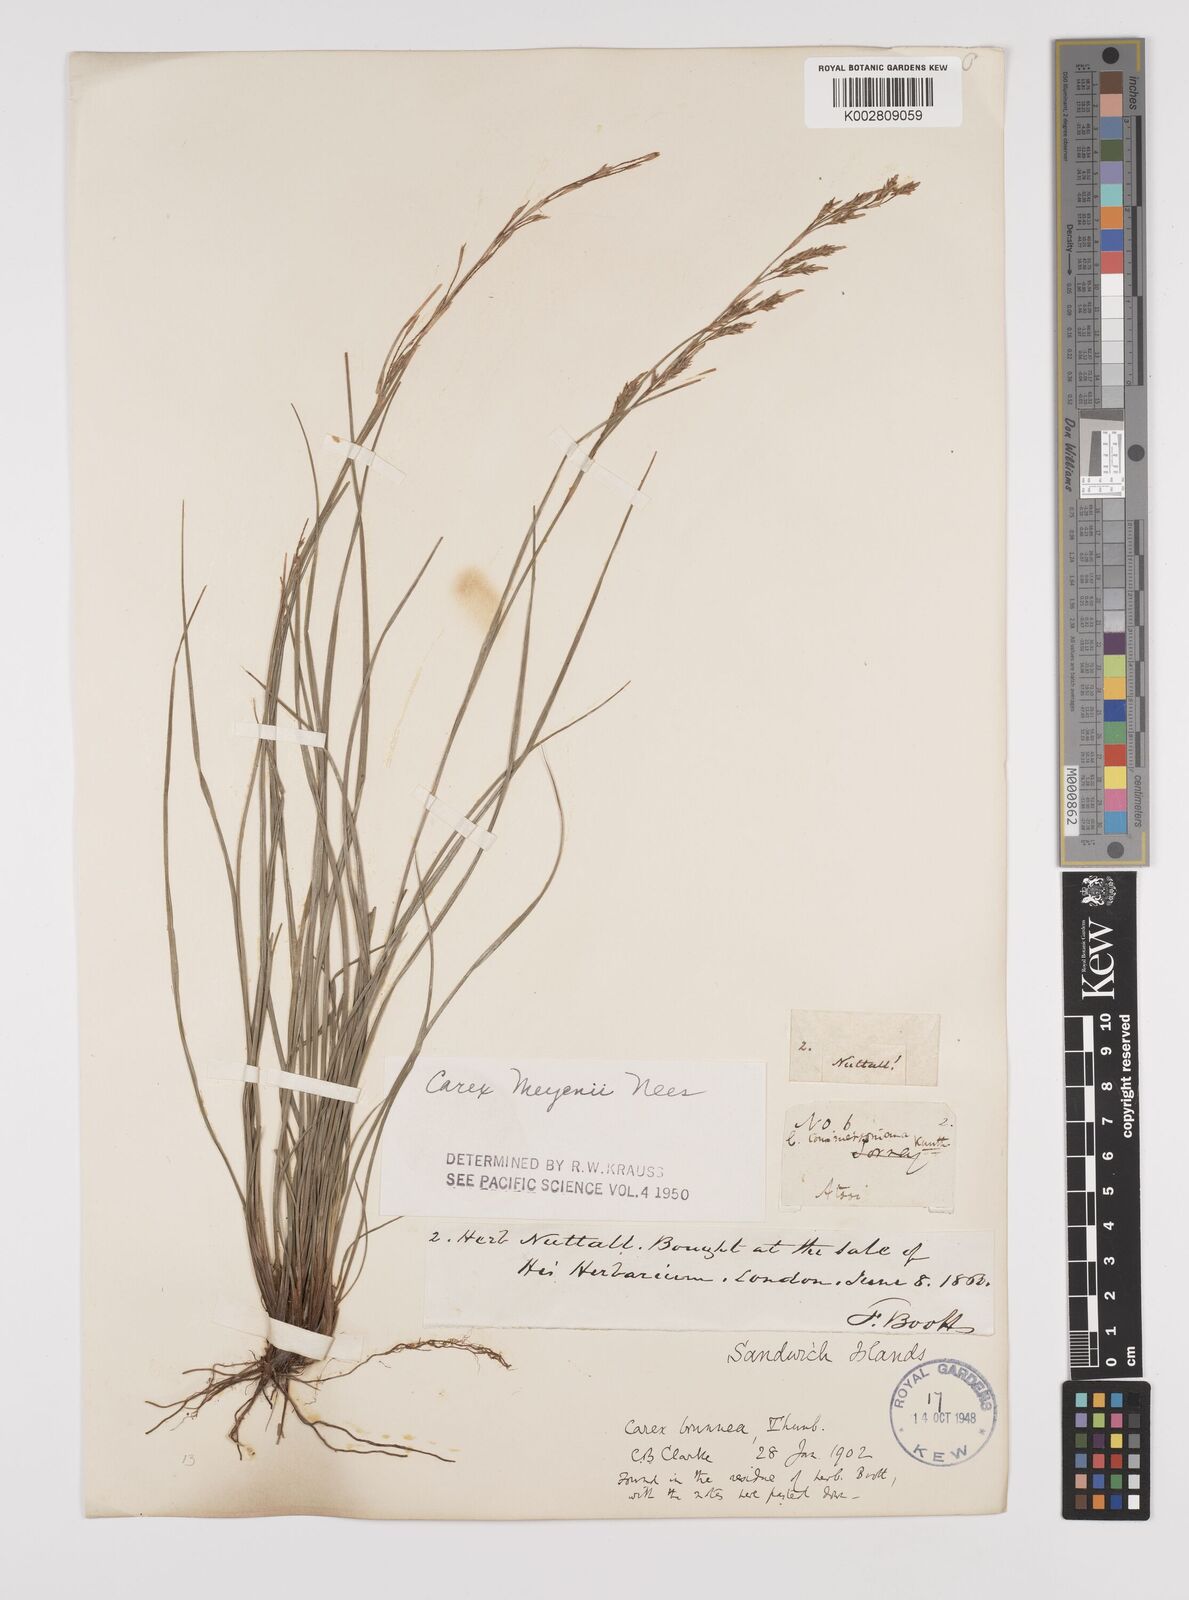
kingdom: Plantae
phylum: Tracheophyta
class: Liliopsida
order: Poales
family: Cyperaceae
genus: Carex
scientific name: Carex brunnea
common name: Greater brown sedge
